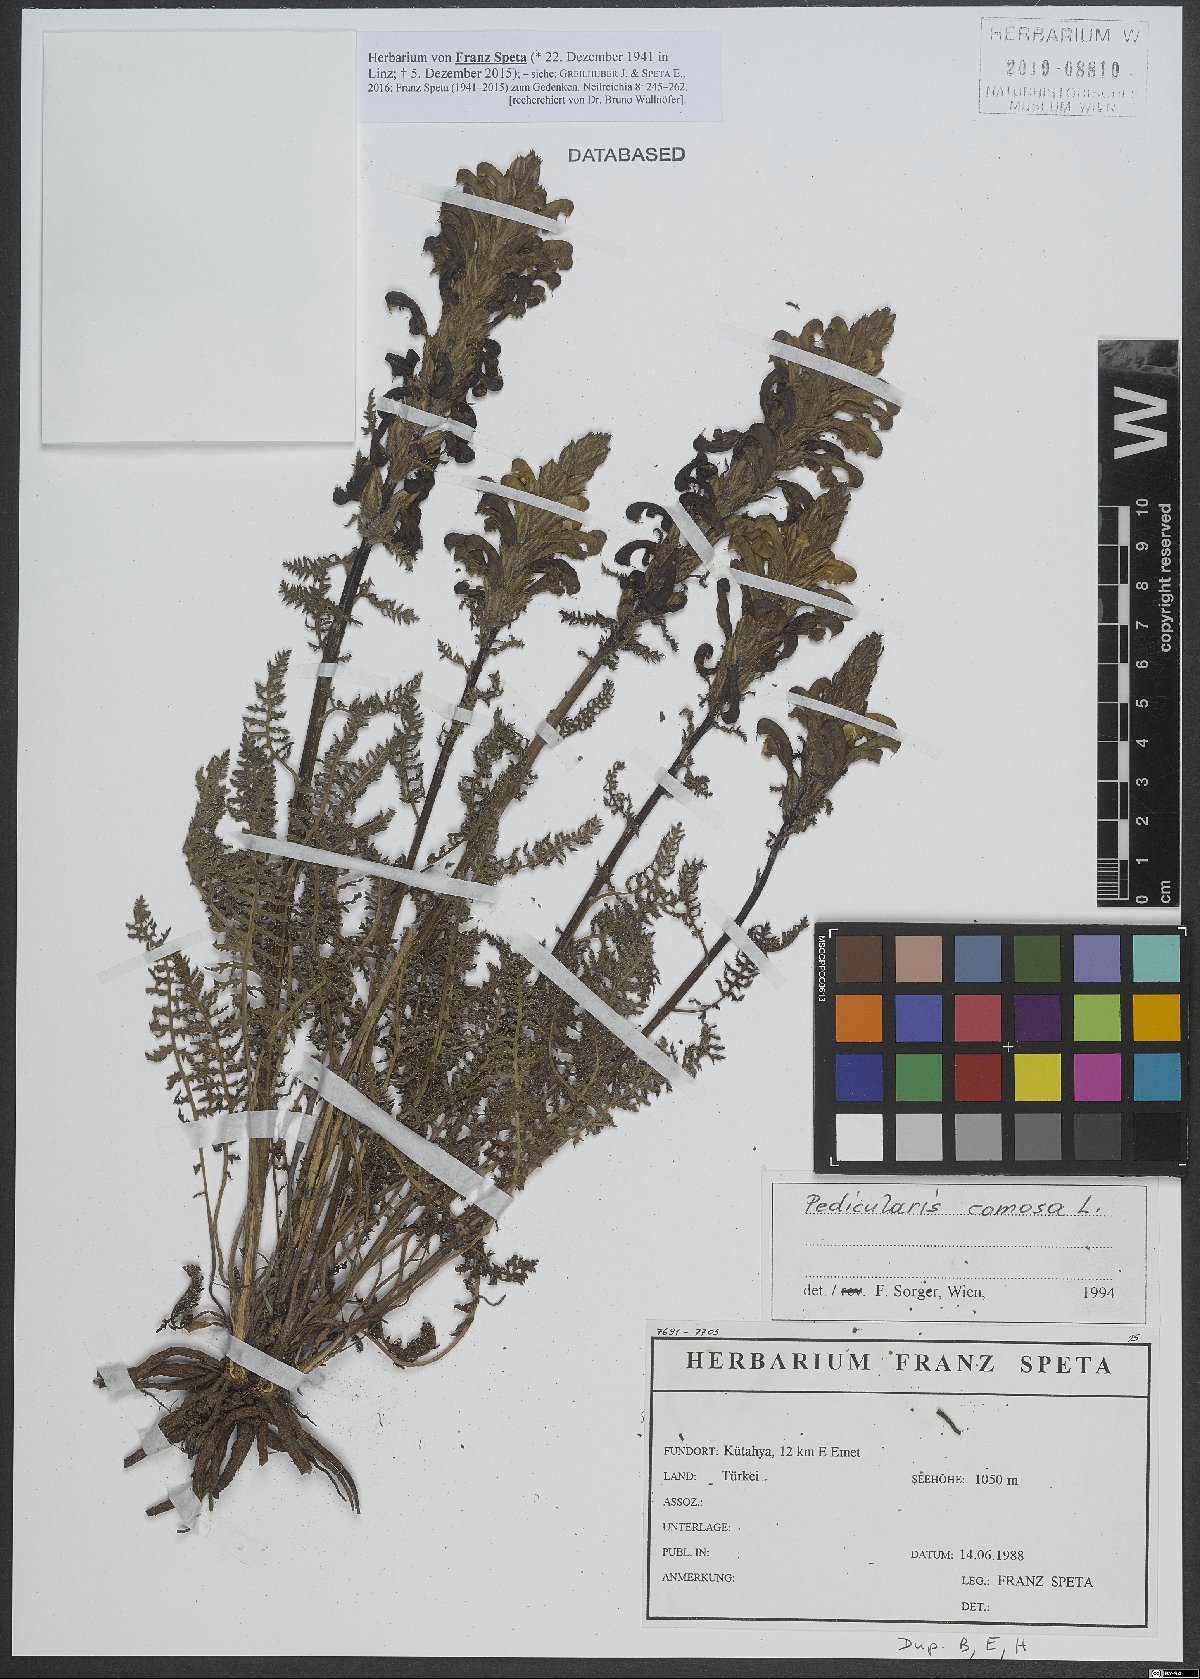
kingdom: Plantae
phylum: Tracheophyta
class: Magnoliopsida
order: Lamiales
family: Orobanchaceae
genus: Pedicularis
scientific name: Pedicularis comosa
